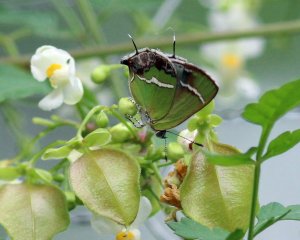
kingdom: Animalia
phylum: Arthropoda
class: Insecta
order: Lepidoptera
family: Lycaenidae
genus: Chlorostrymon
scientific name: Chlorostrymon simaethis
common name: Silver-banded Hairstreak
